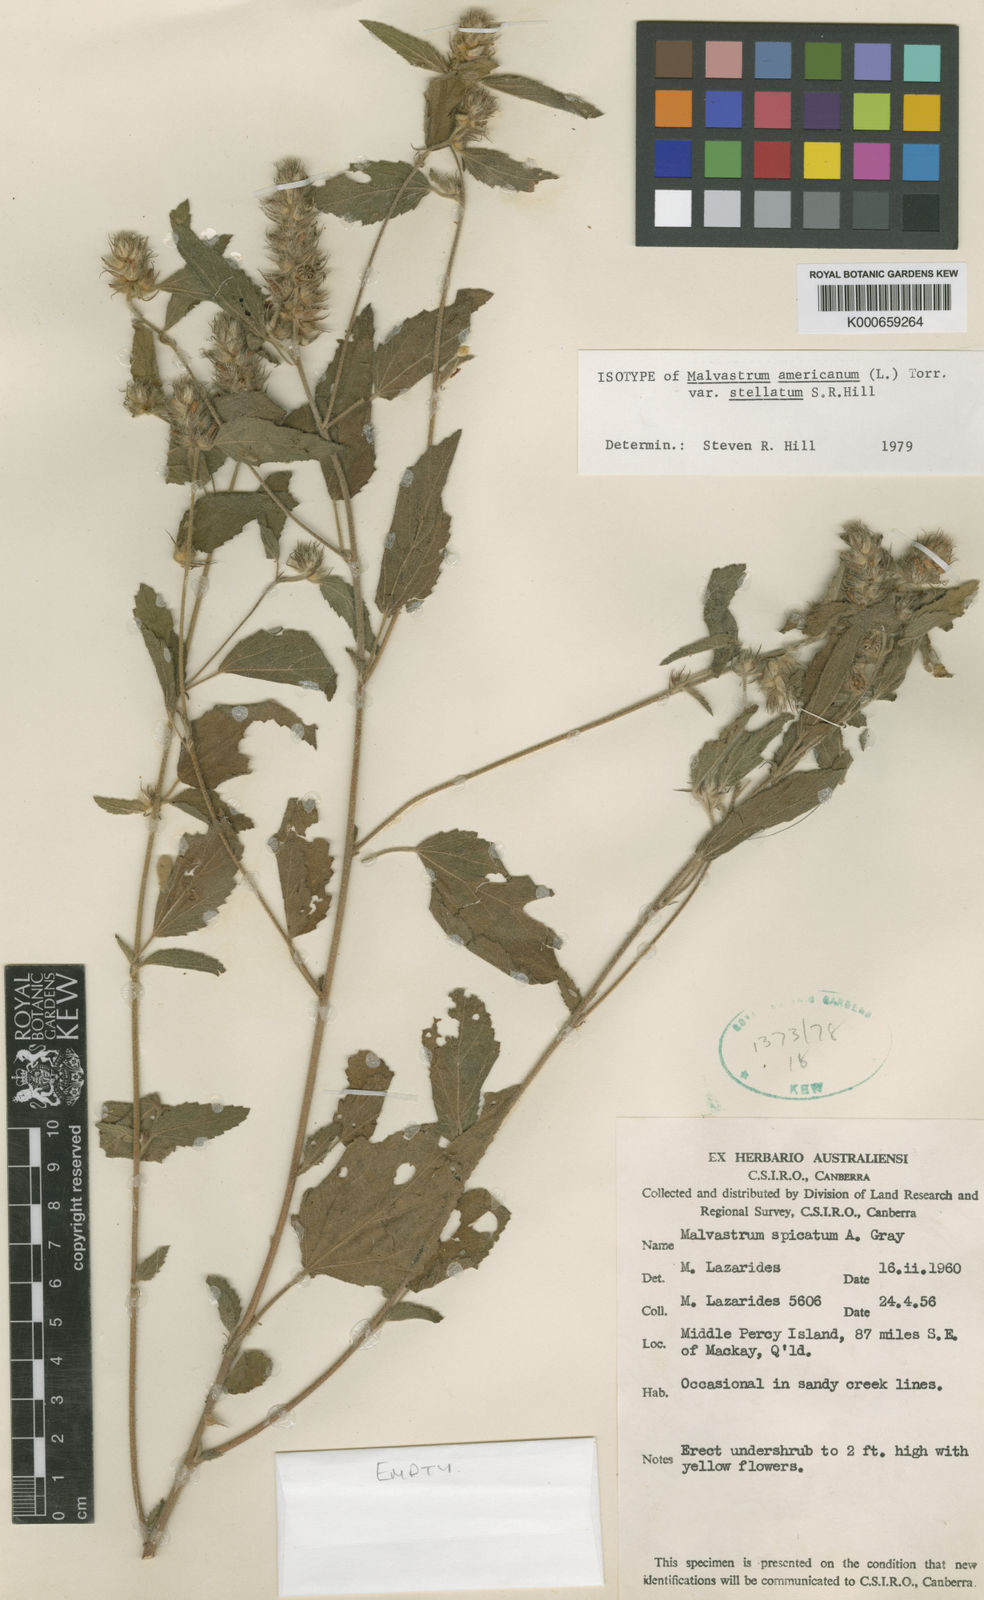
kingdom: Plantae
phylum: Tracheophyta
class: Magnoliopsida
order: Malvales
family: Malvaceae
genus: Malvastrum
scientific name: Malvastrum americanum
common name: Spiked malvastrum
